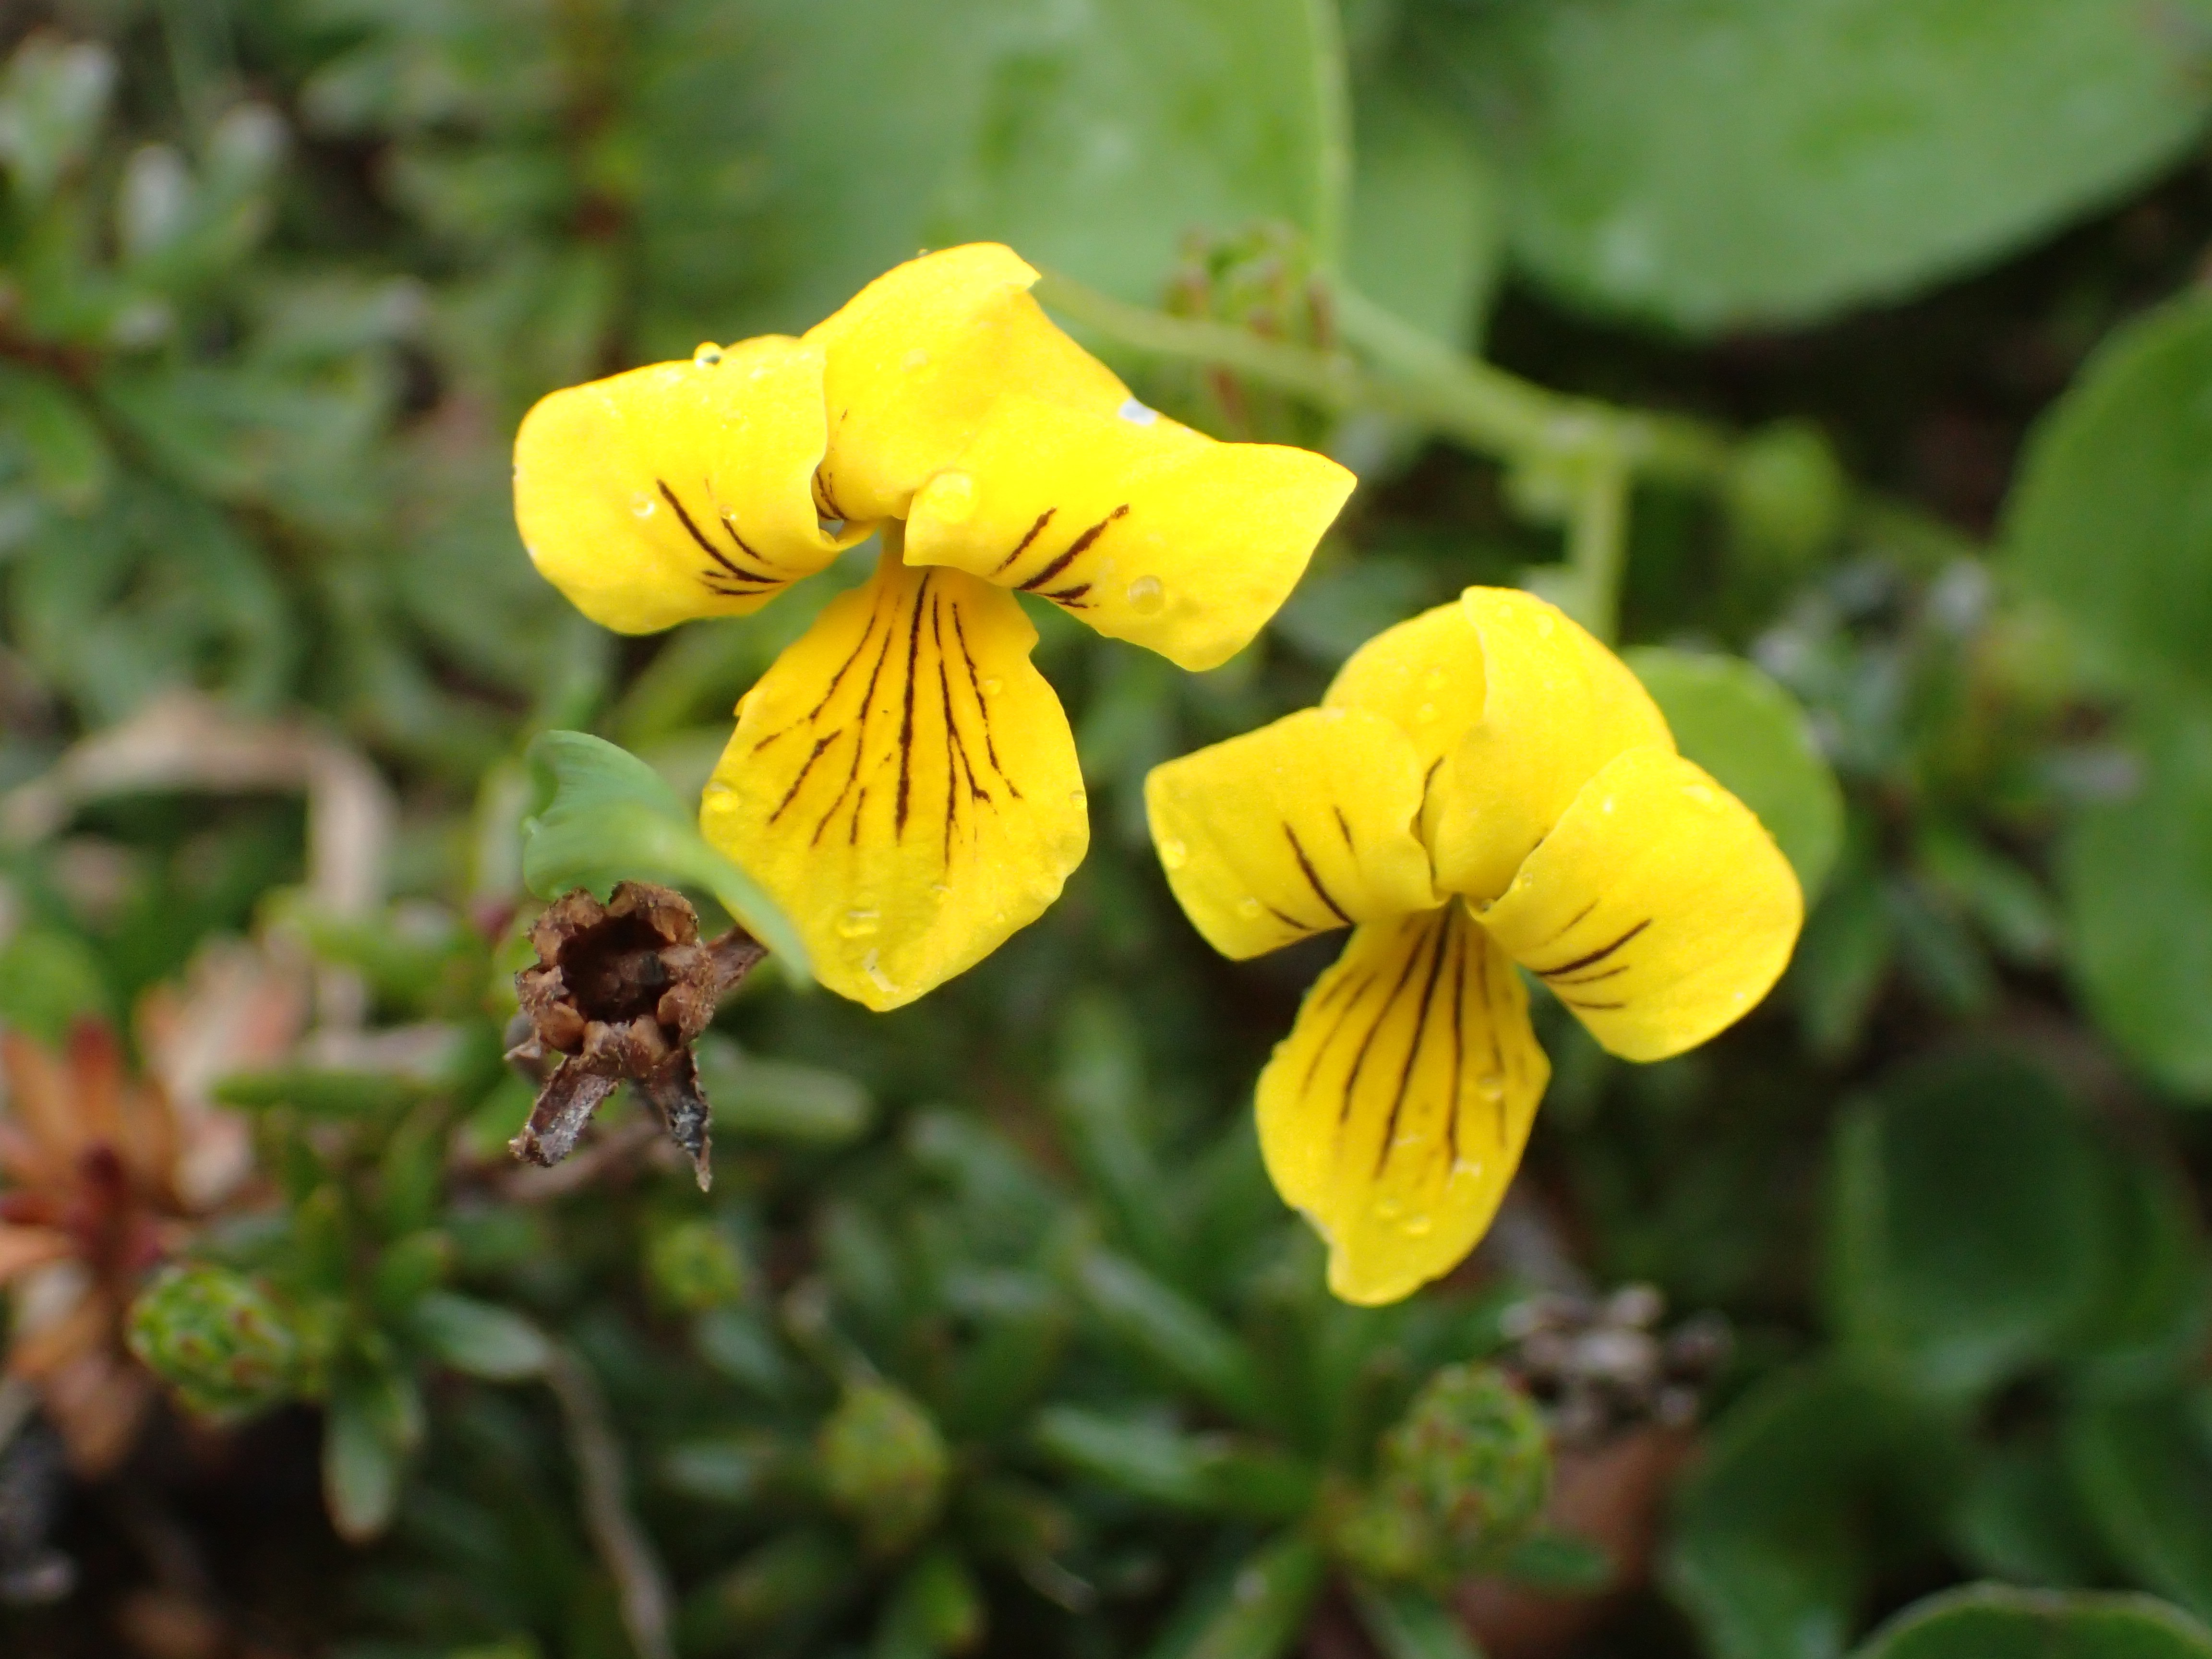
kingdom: Plantae
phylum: Tracheophyta
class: Magnoliopsida
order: Malpighiales
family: Violaceae
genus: Viola
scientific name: Viola biflora
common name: Alpine yellow violet
